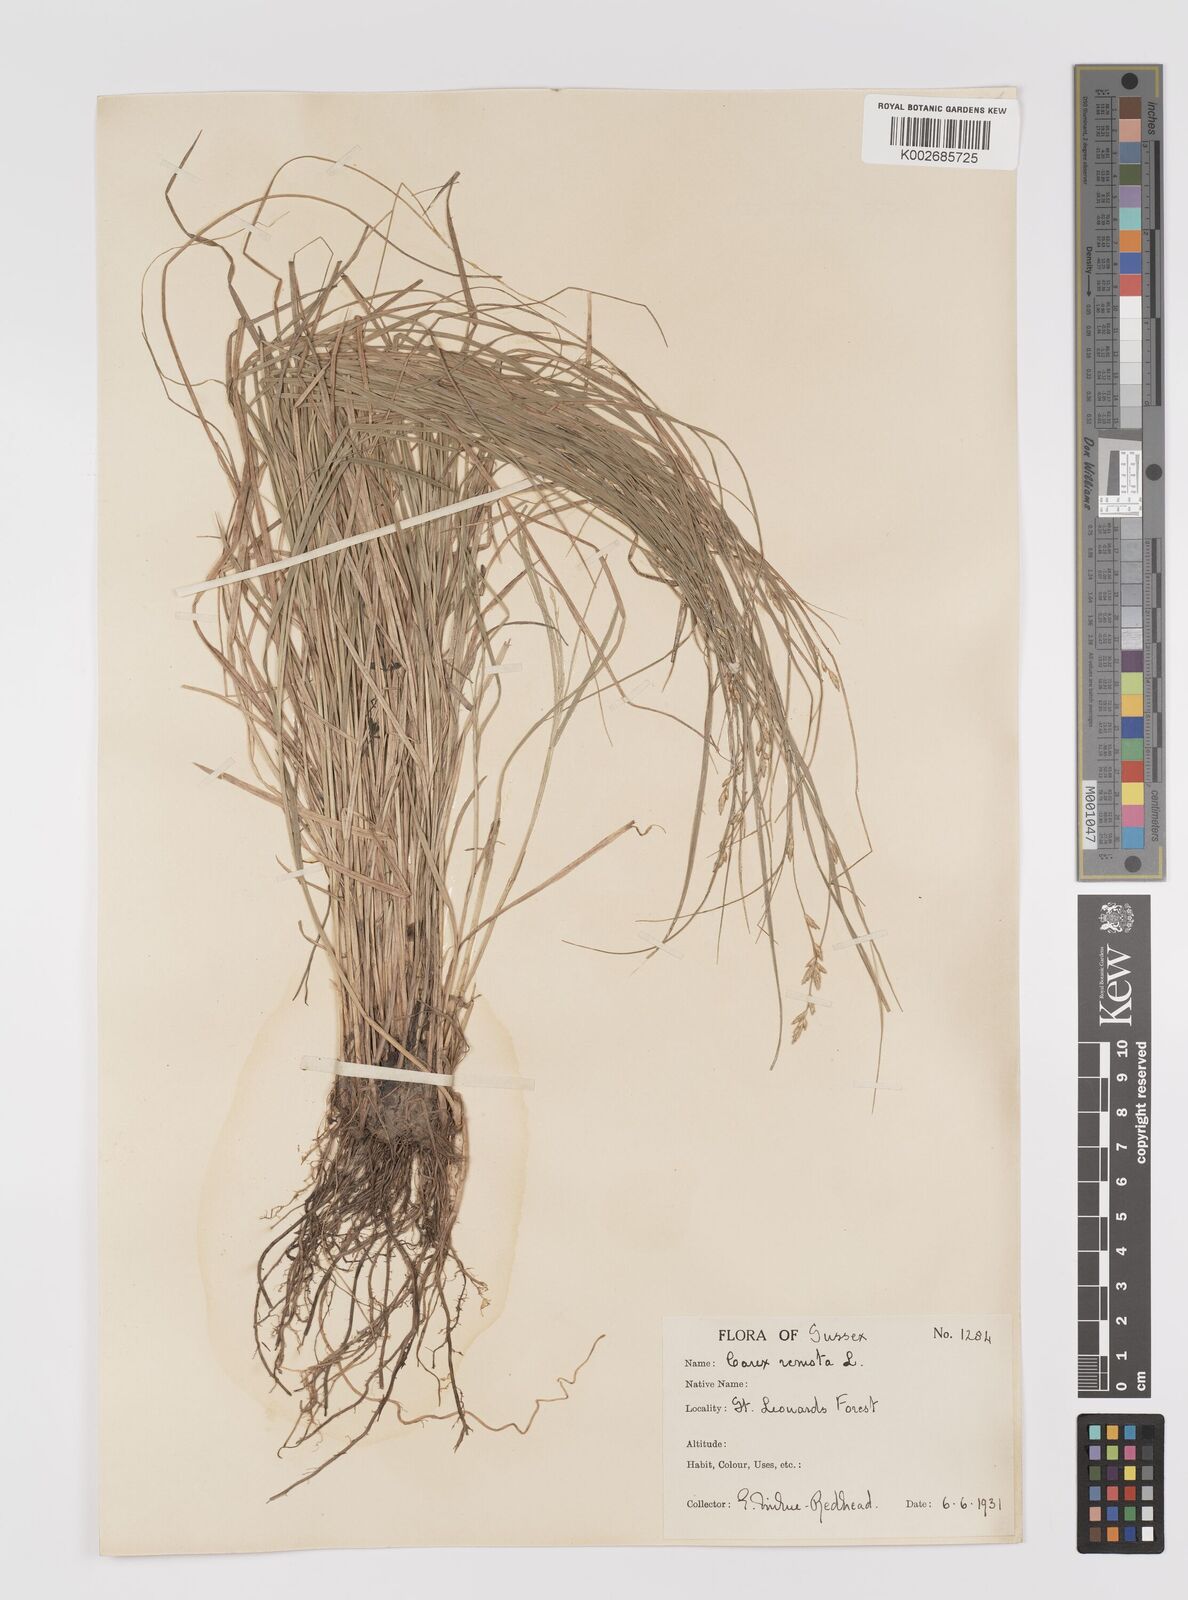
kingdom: Plantae
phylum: Tracheophyta
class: Liliopsida
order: Poales
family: Cyperaceae
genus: Carex
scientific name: Carex remota
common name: Remote sedge
